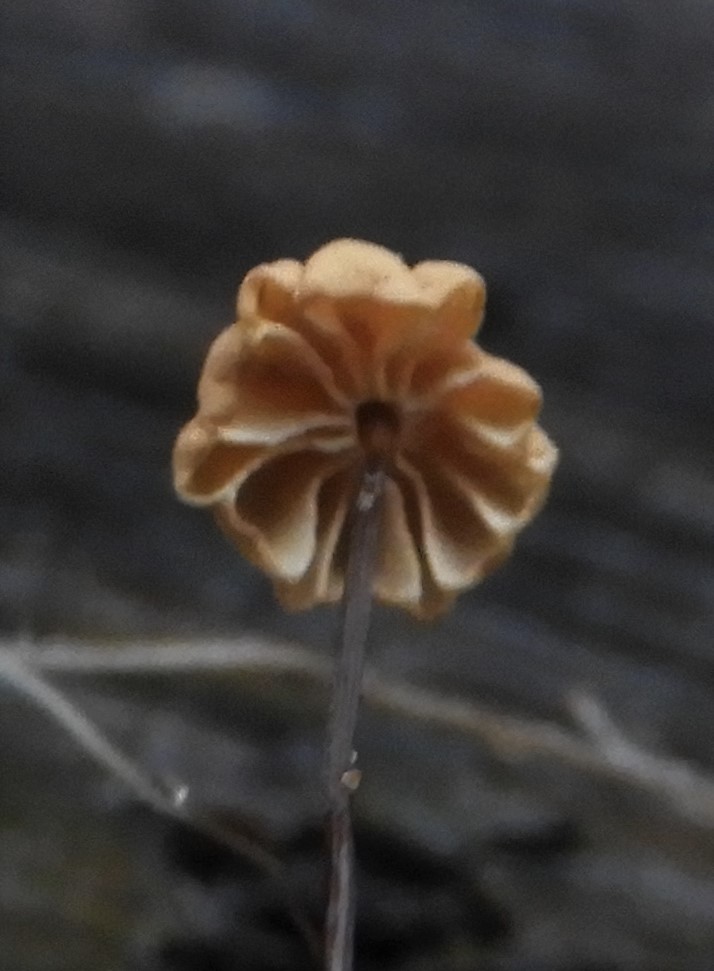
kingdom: Fungi
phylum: Basidiomycota
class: Agaricomycetes
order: Agaricales
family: Marasmiaceae
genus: Marasmius
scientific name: Marasmius bulliardii
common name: furet bruskhat
